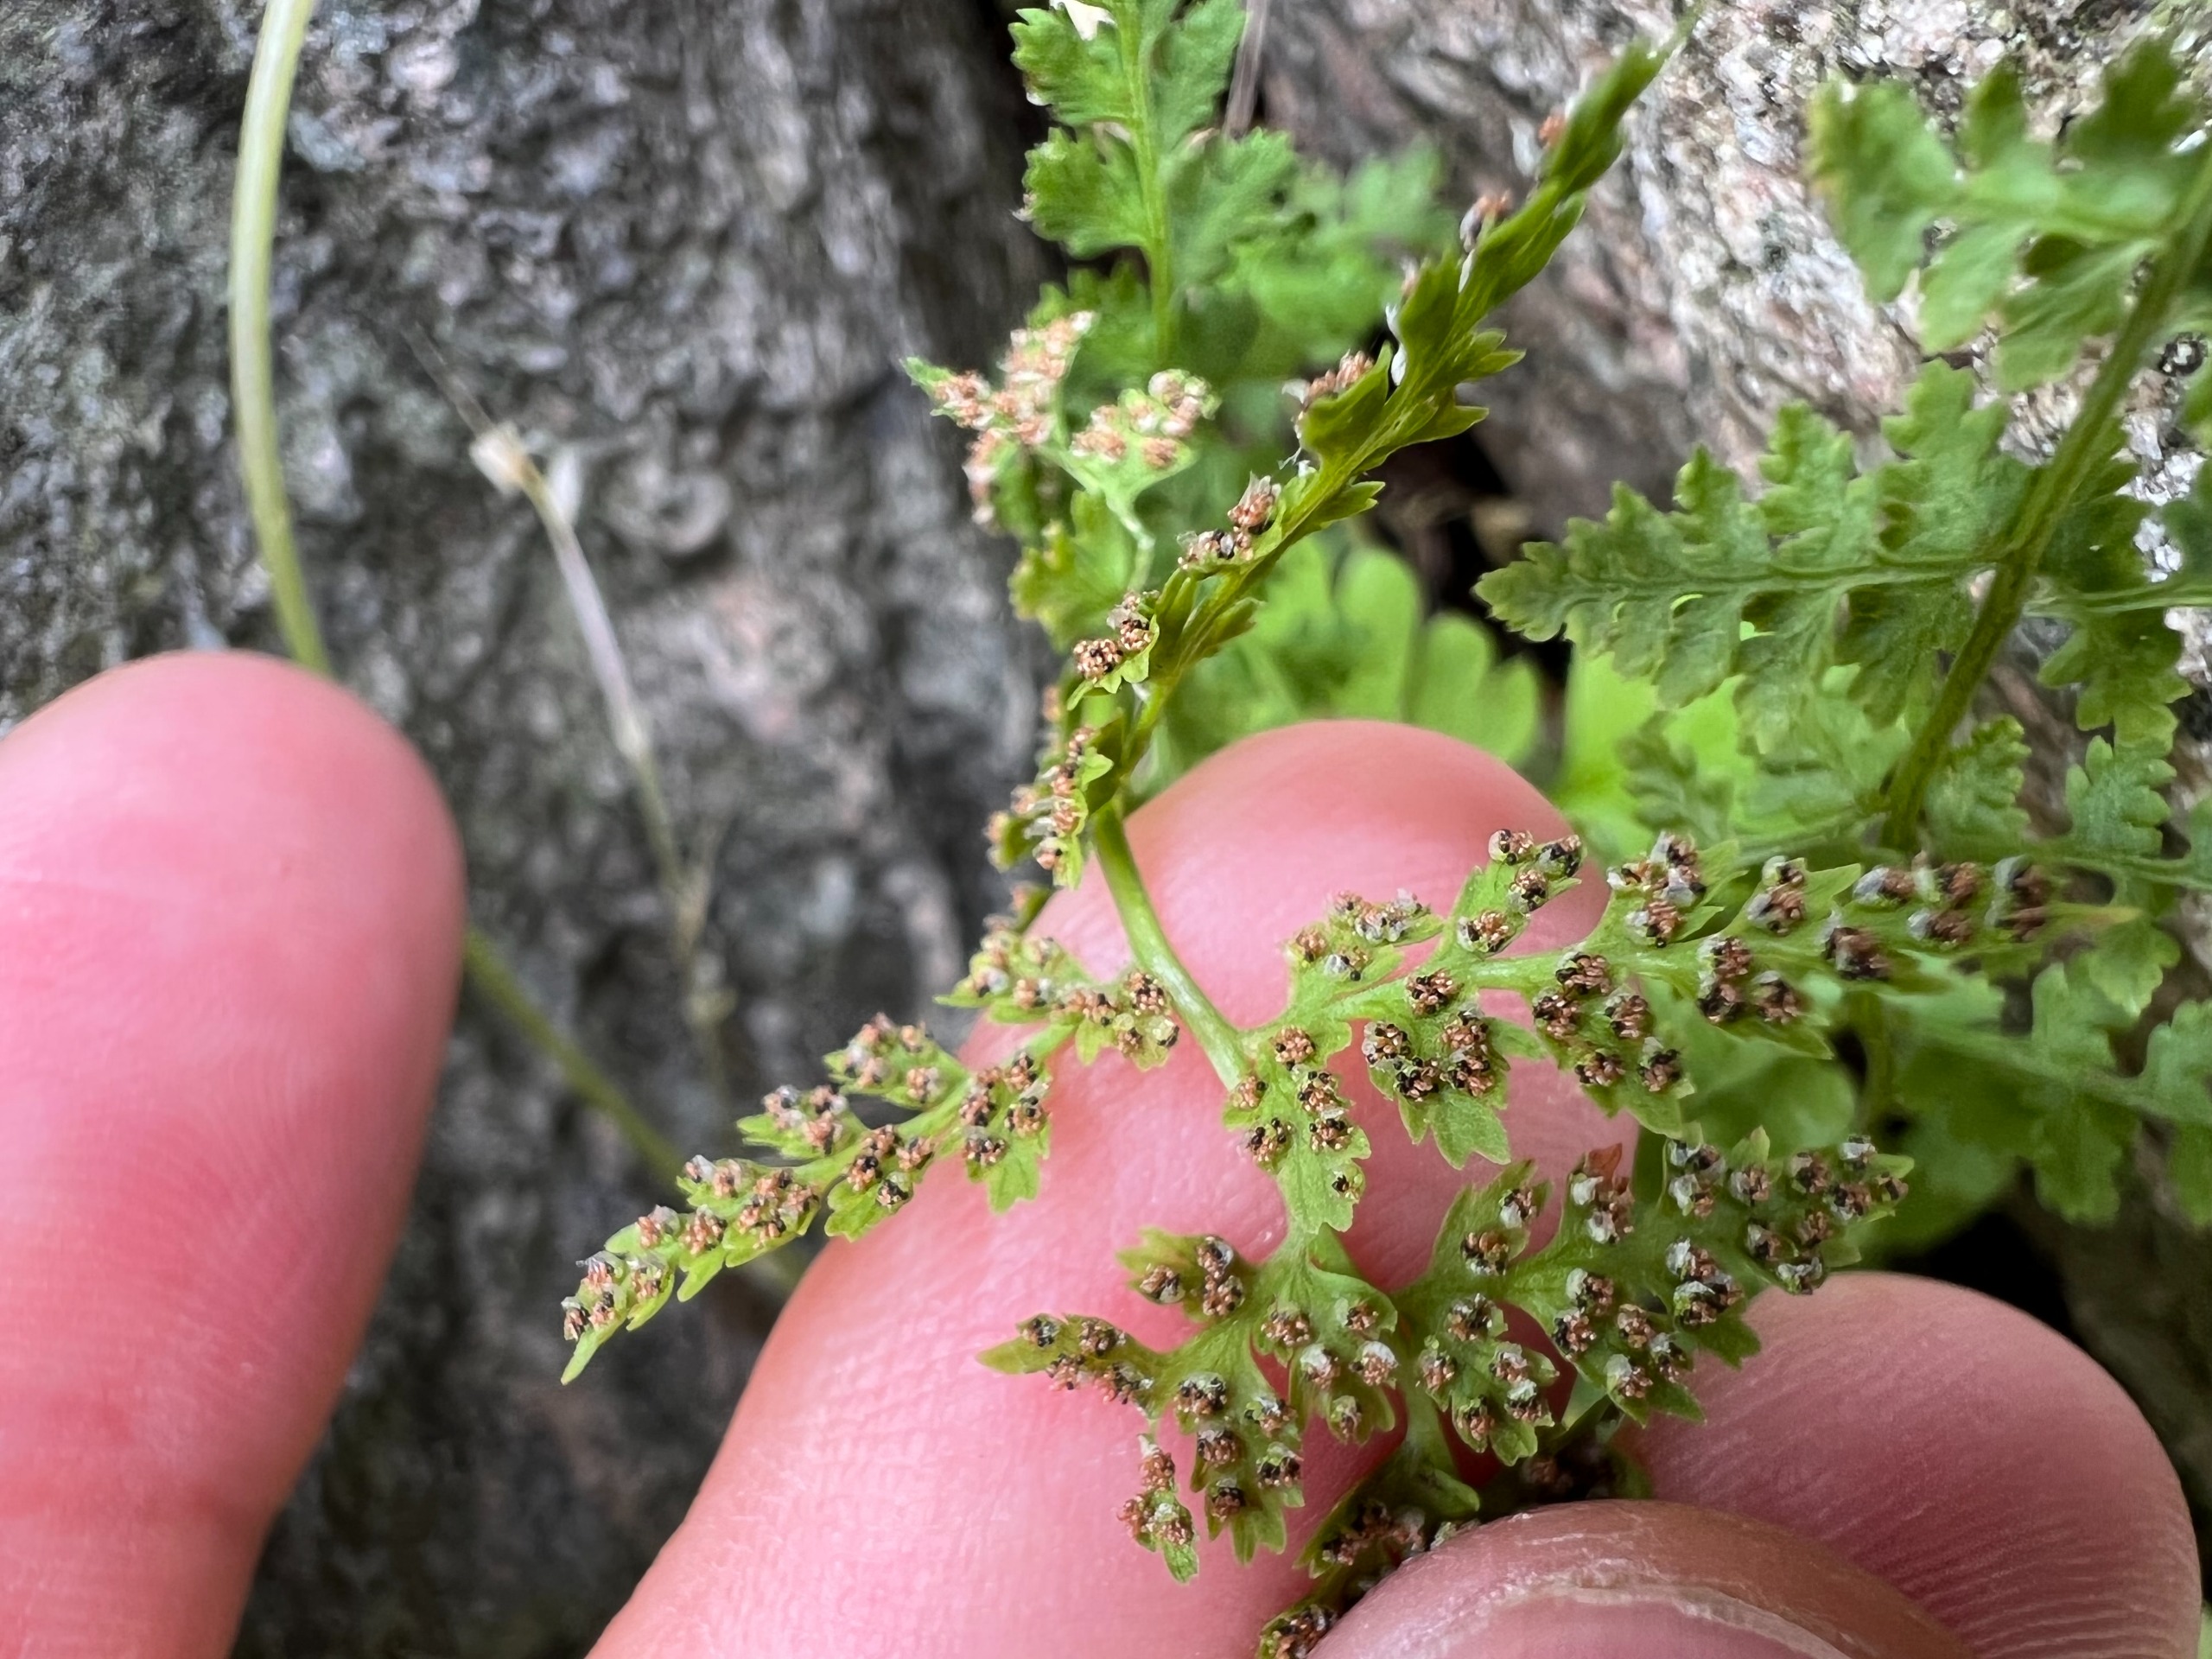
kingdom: Plantae
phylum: Tracheophyta
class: Polypodiopsida
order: Polypodiales
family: Cystopteridaceae
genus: Cystopteris
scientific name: Cystopteris fragilis
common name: Bægerbregne
